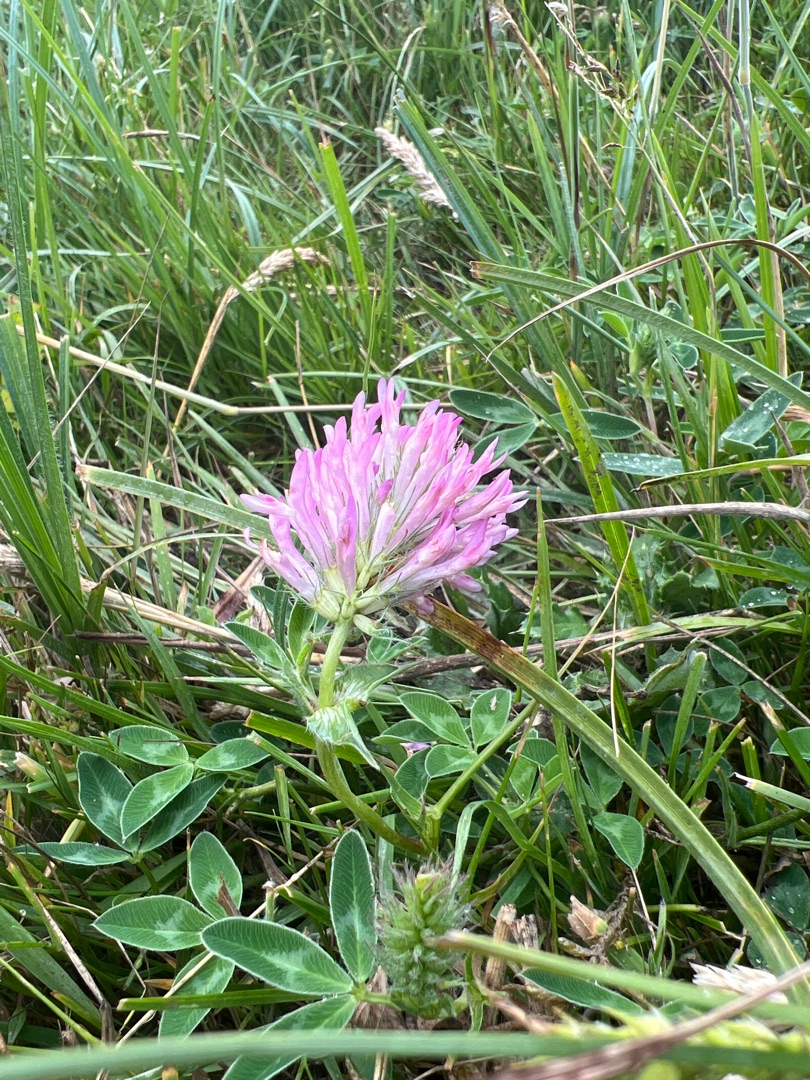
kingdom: Plantae
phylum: Tracheophyta
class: Magnoliopsida
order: Fabales
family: Fabaceae
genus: Trifolium
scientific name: Trifolium medium
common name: Bugtet kløver
